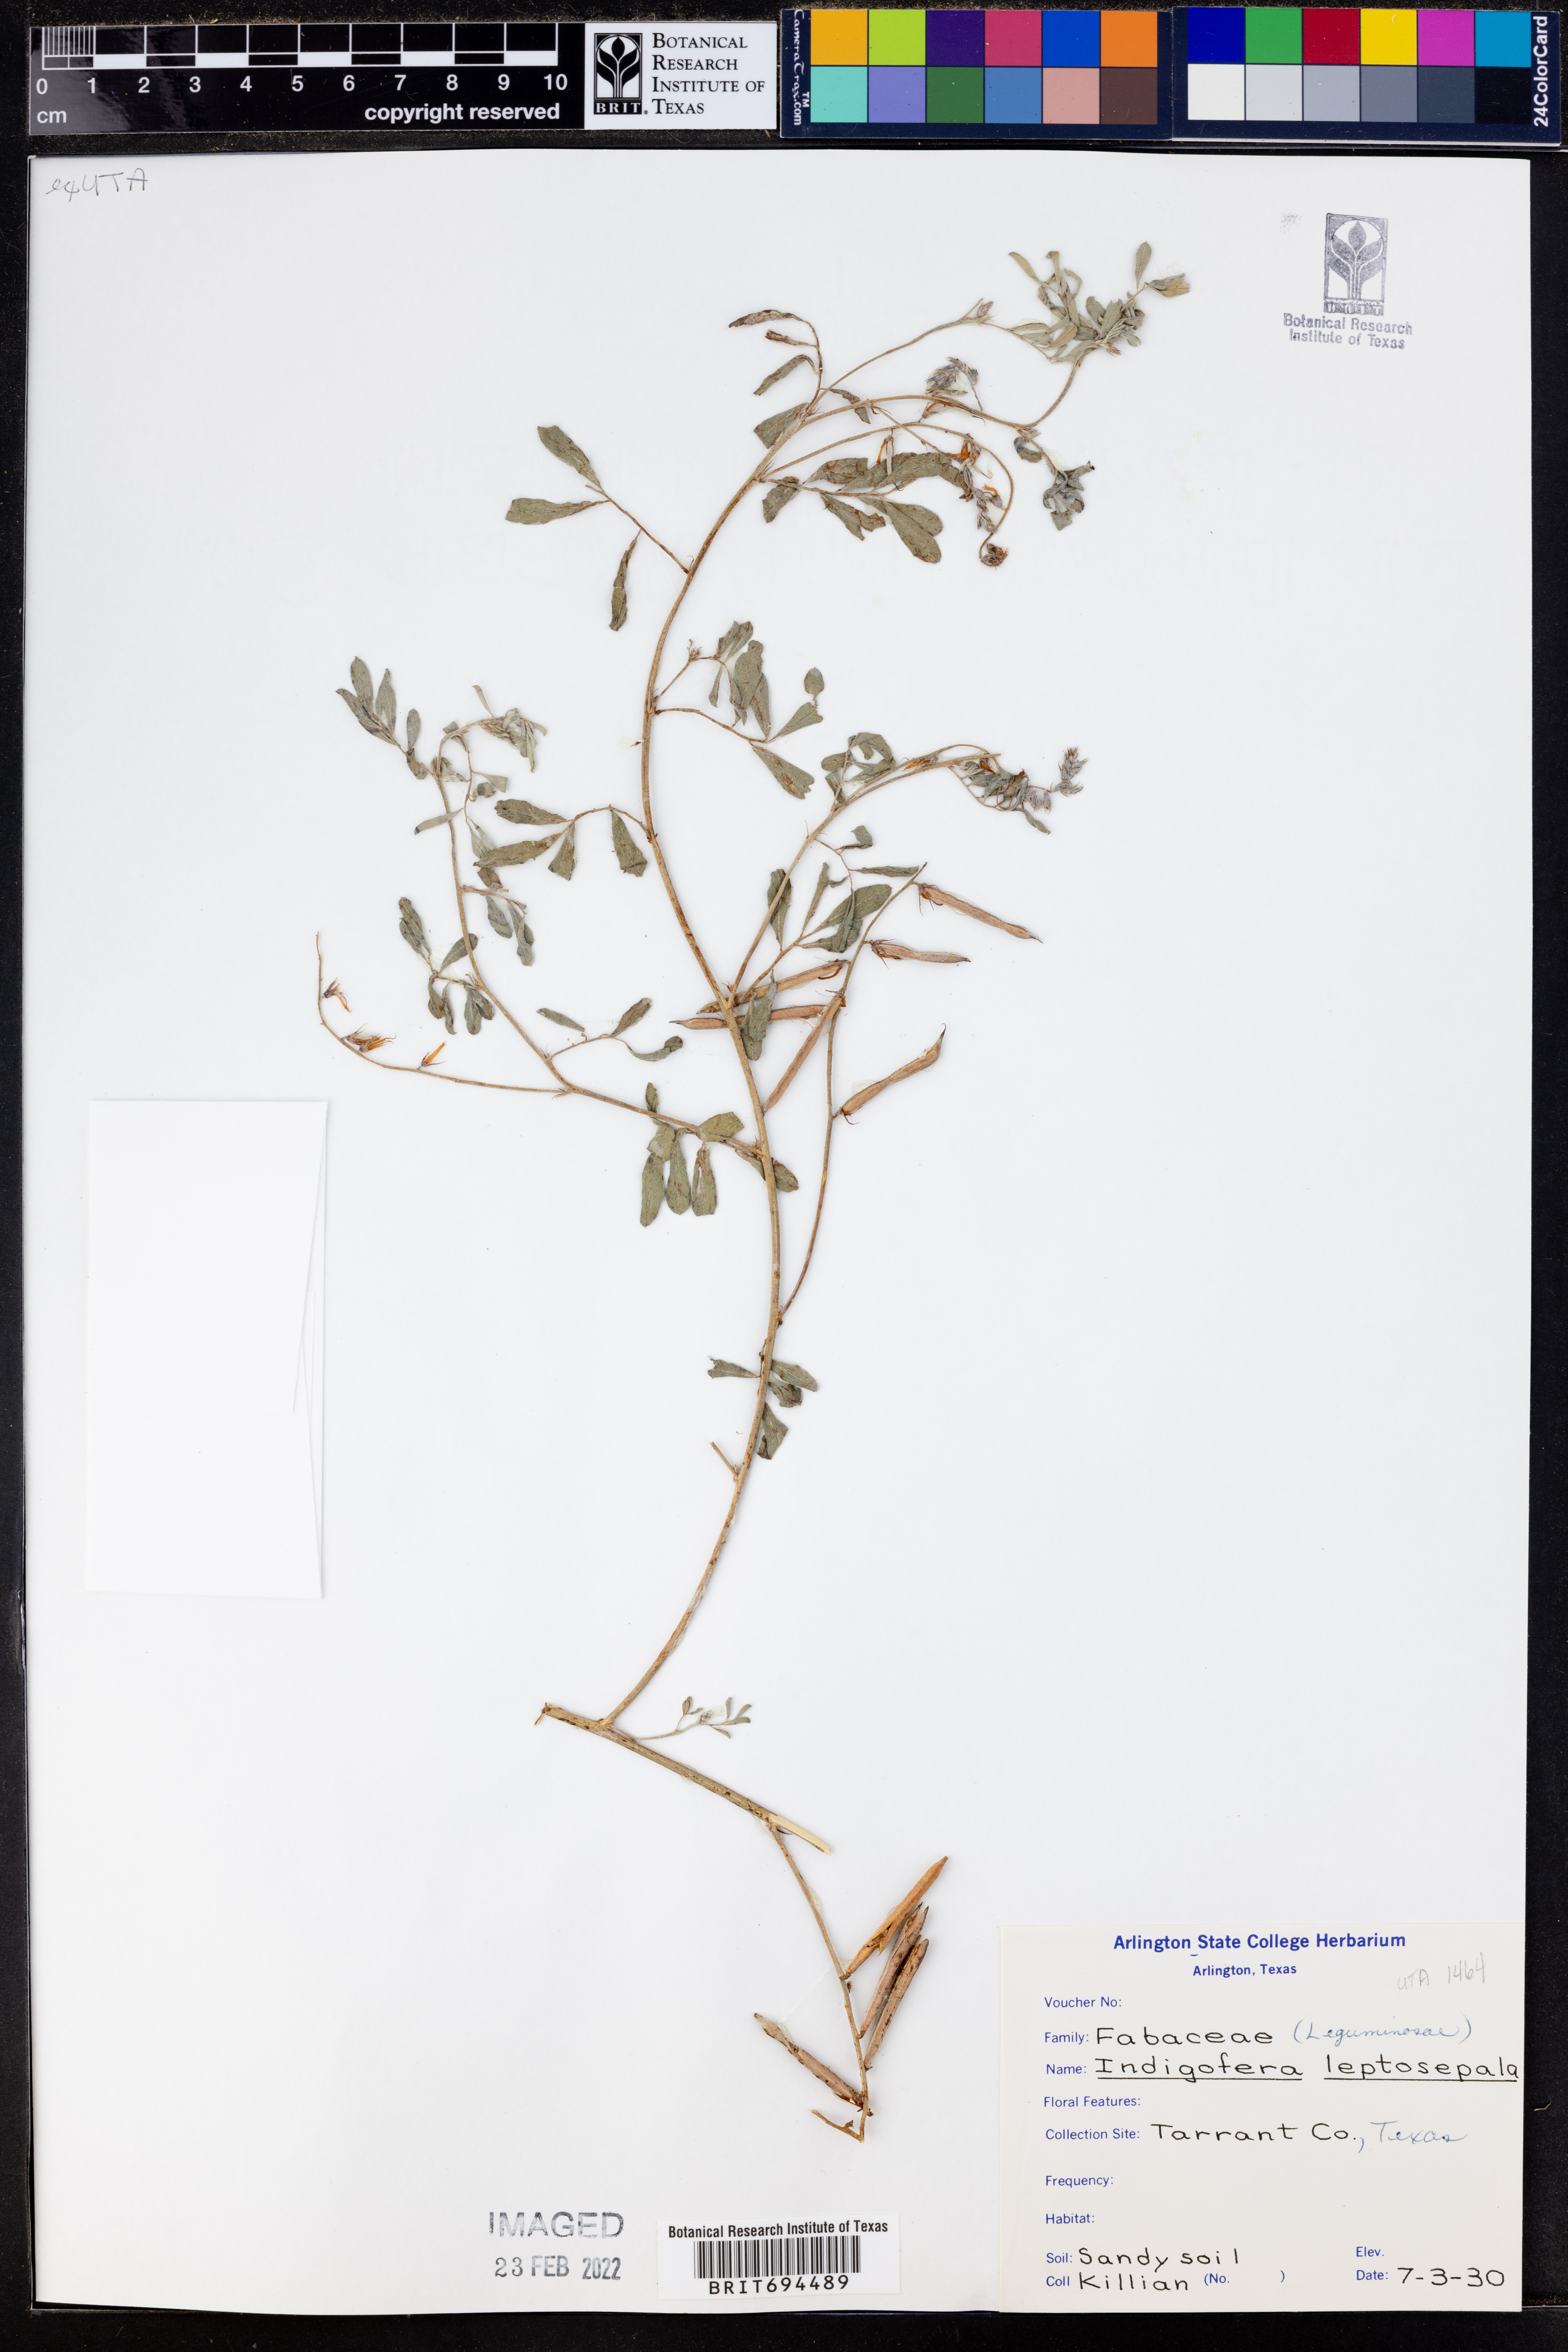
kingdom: Plantae
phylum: Tracheophyta
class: Magnoliopsida
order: Fabales
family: Fabaceae
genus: Indigofera
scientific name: Indigofera argutidens
